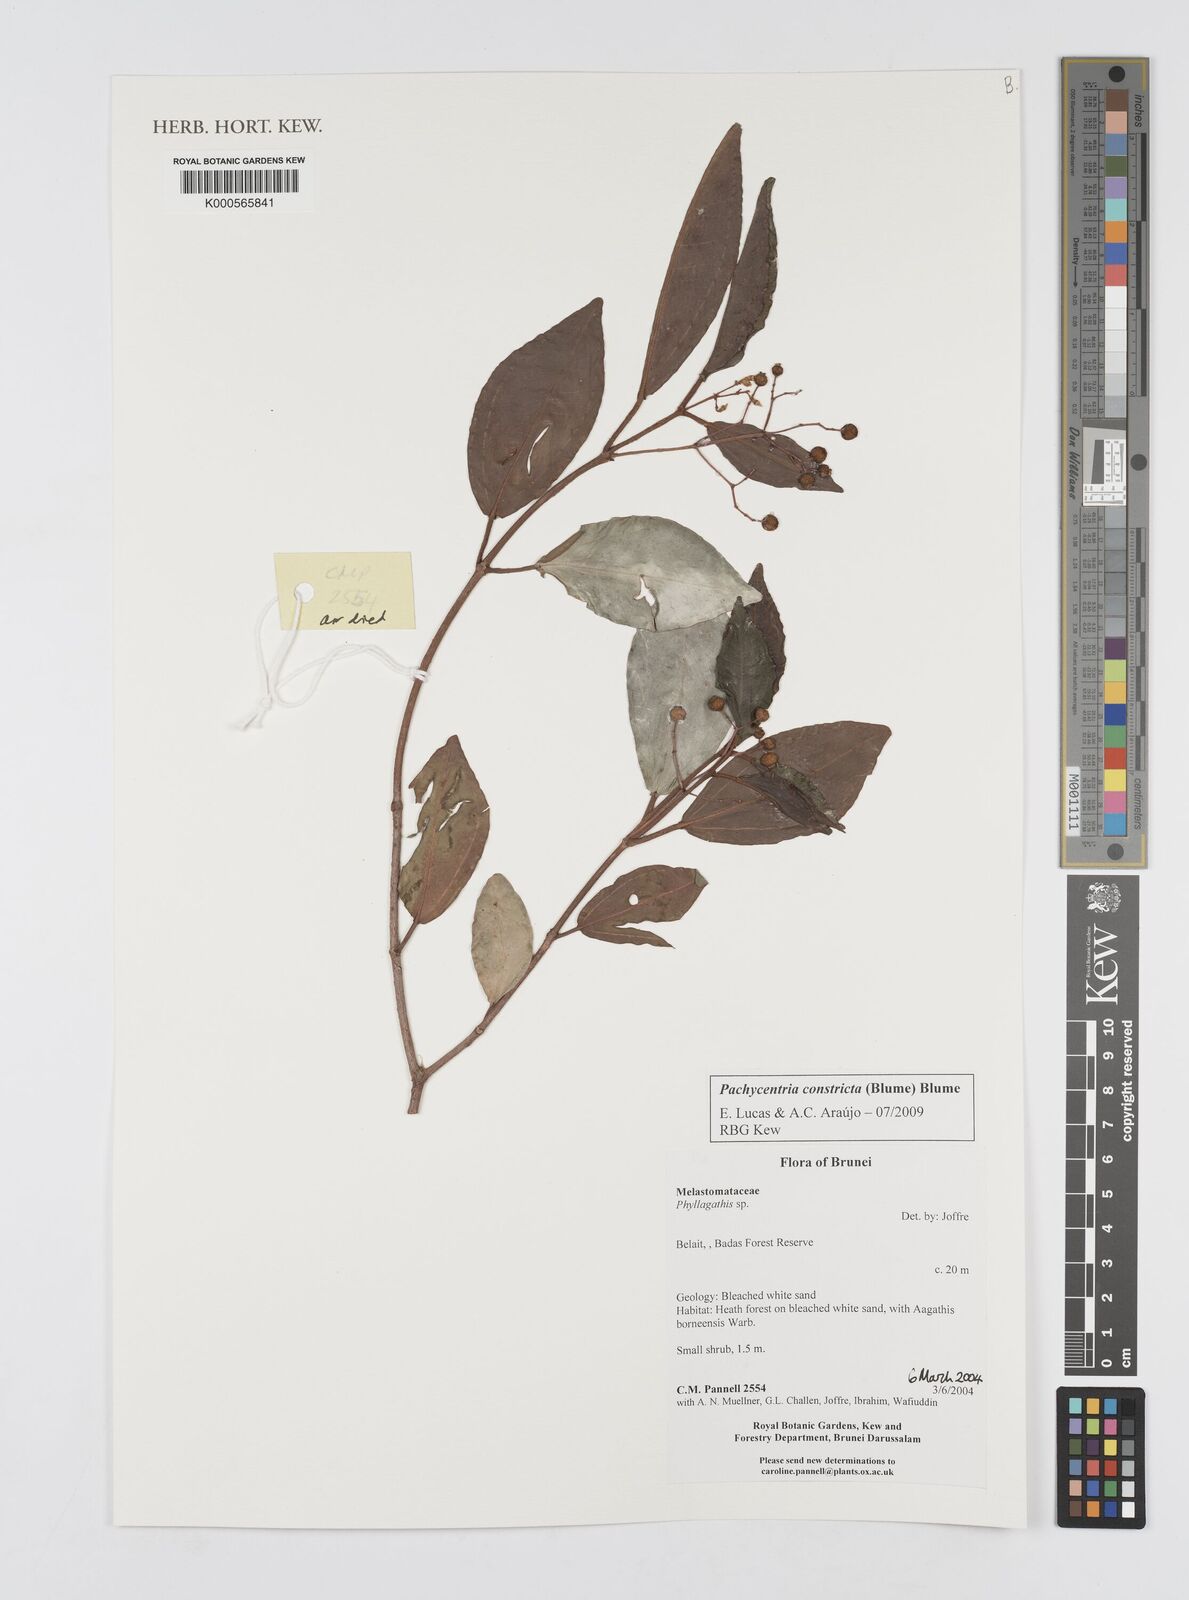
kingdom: Plantae
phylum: Tracheophyta
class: Magnoliopsida
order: Myrtales
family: Melastomataceae
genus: Pachycentria
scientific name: Pachycentria constricta
